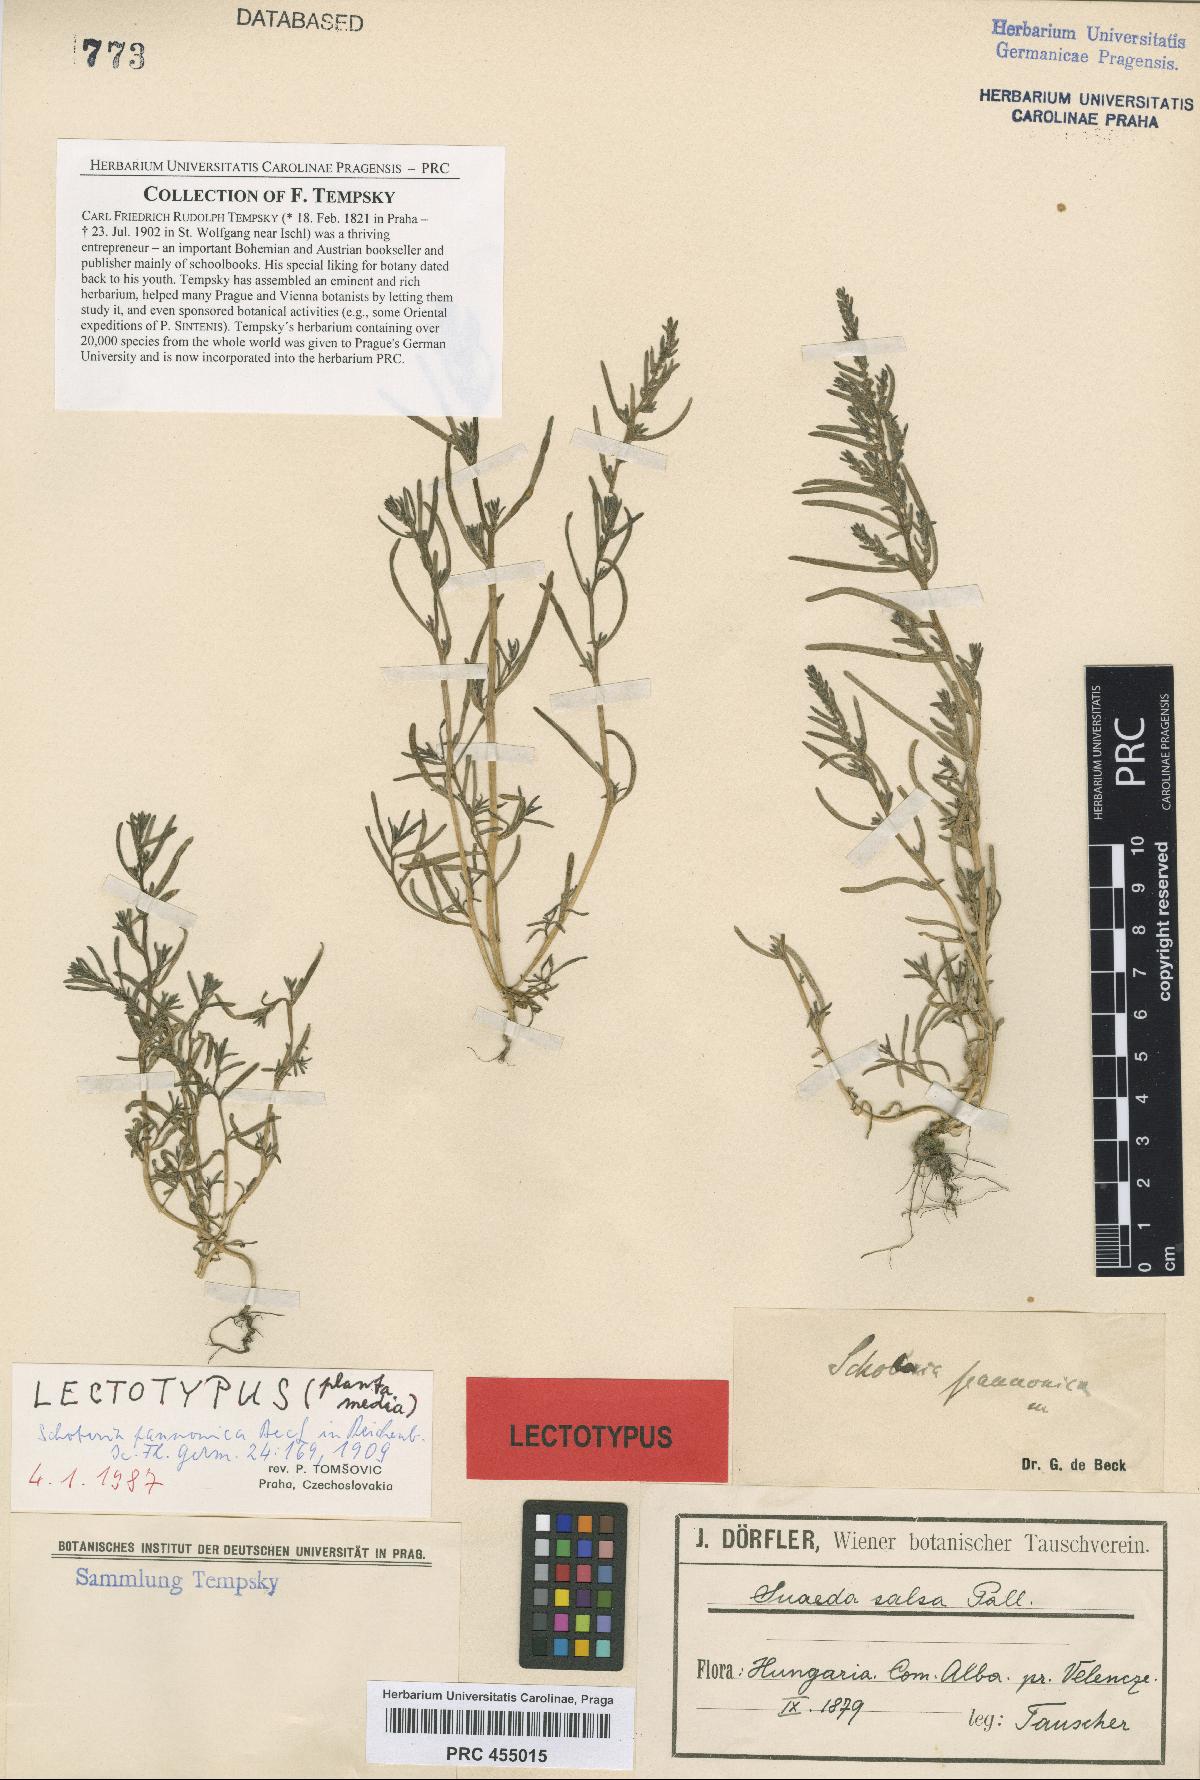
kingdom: Plantae
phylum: Tracheophyta
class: Magnoliopsida
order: Caryophyllales
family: Amaranthaceae
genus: Suaeda
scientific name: Suaeda pannonica
